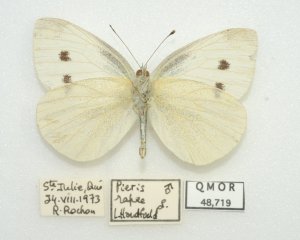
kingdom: Animalia
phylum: Arthropoda
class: Insecta
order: Lepidoptera
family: Pieridae
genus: Pieris
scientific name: Pieris rapae
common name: Cabbage White
